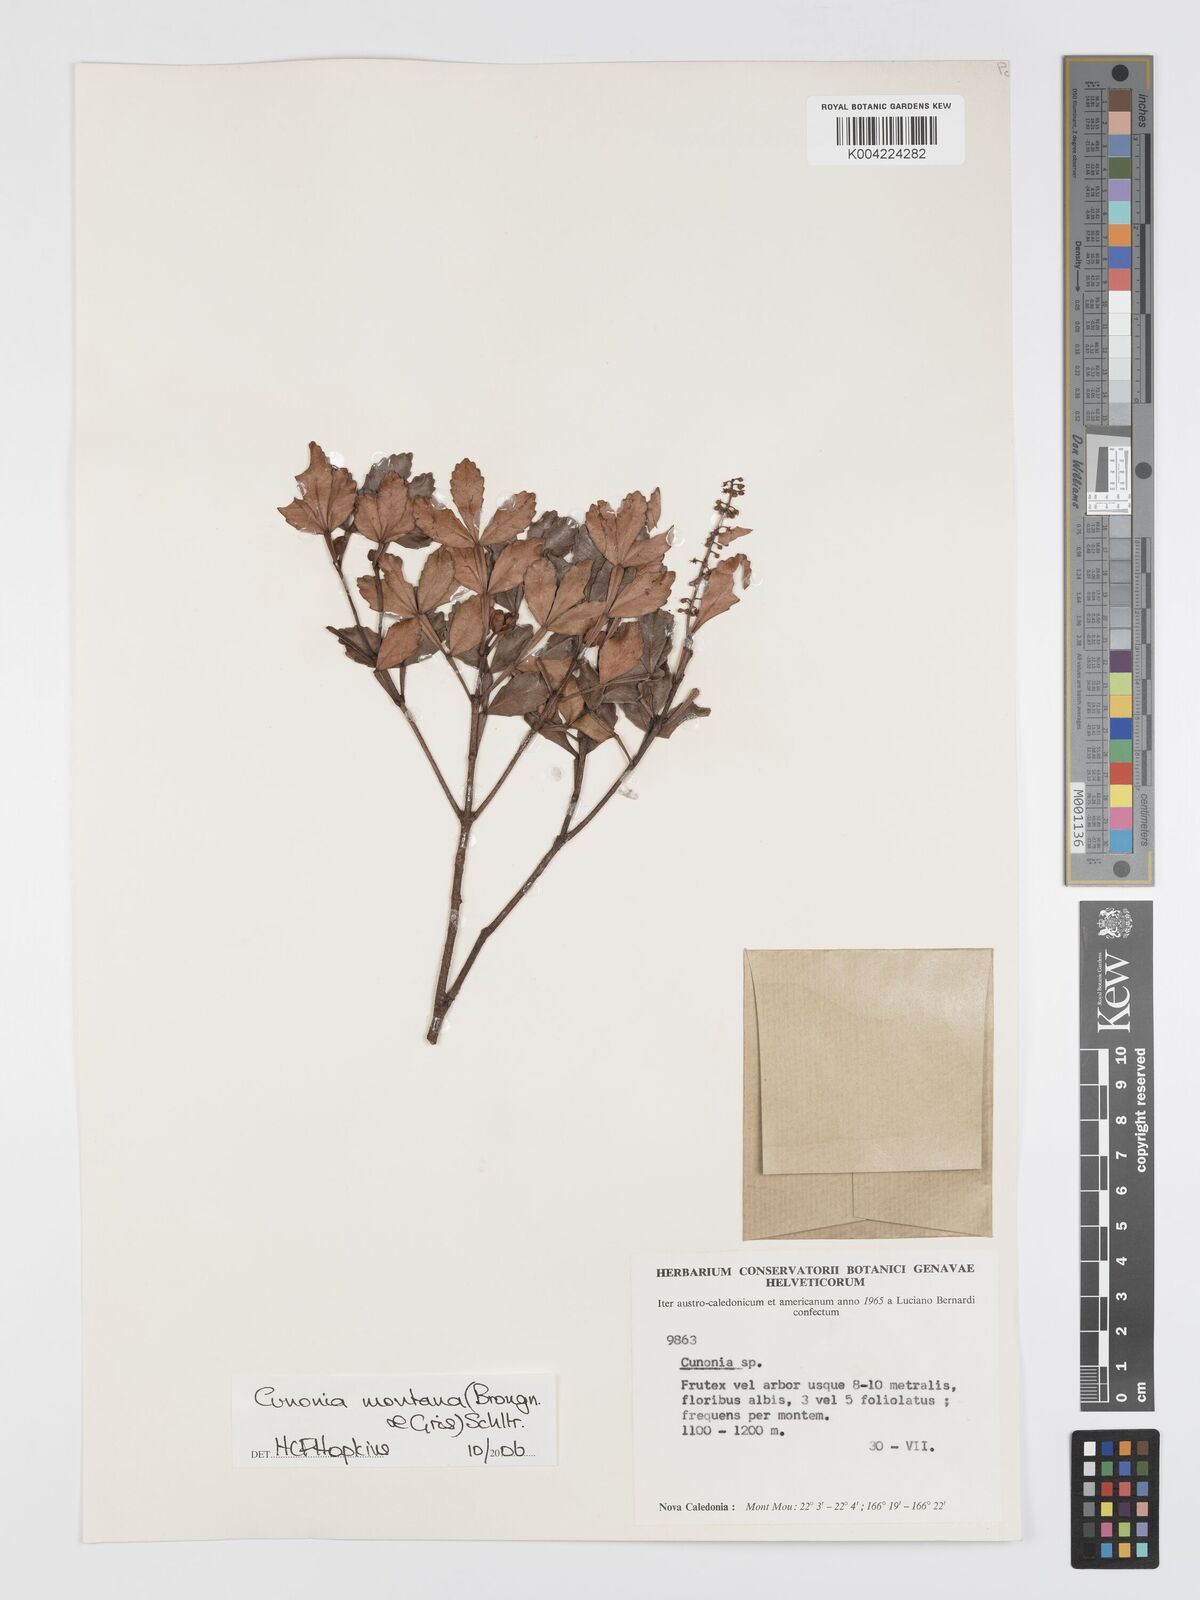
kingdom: Plantae
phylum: Tracheophyta
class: Magnoliopsida
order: Oxalidales
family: Cunoniaceae
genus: Cunonia
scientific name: Cunonia montana
